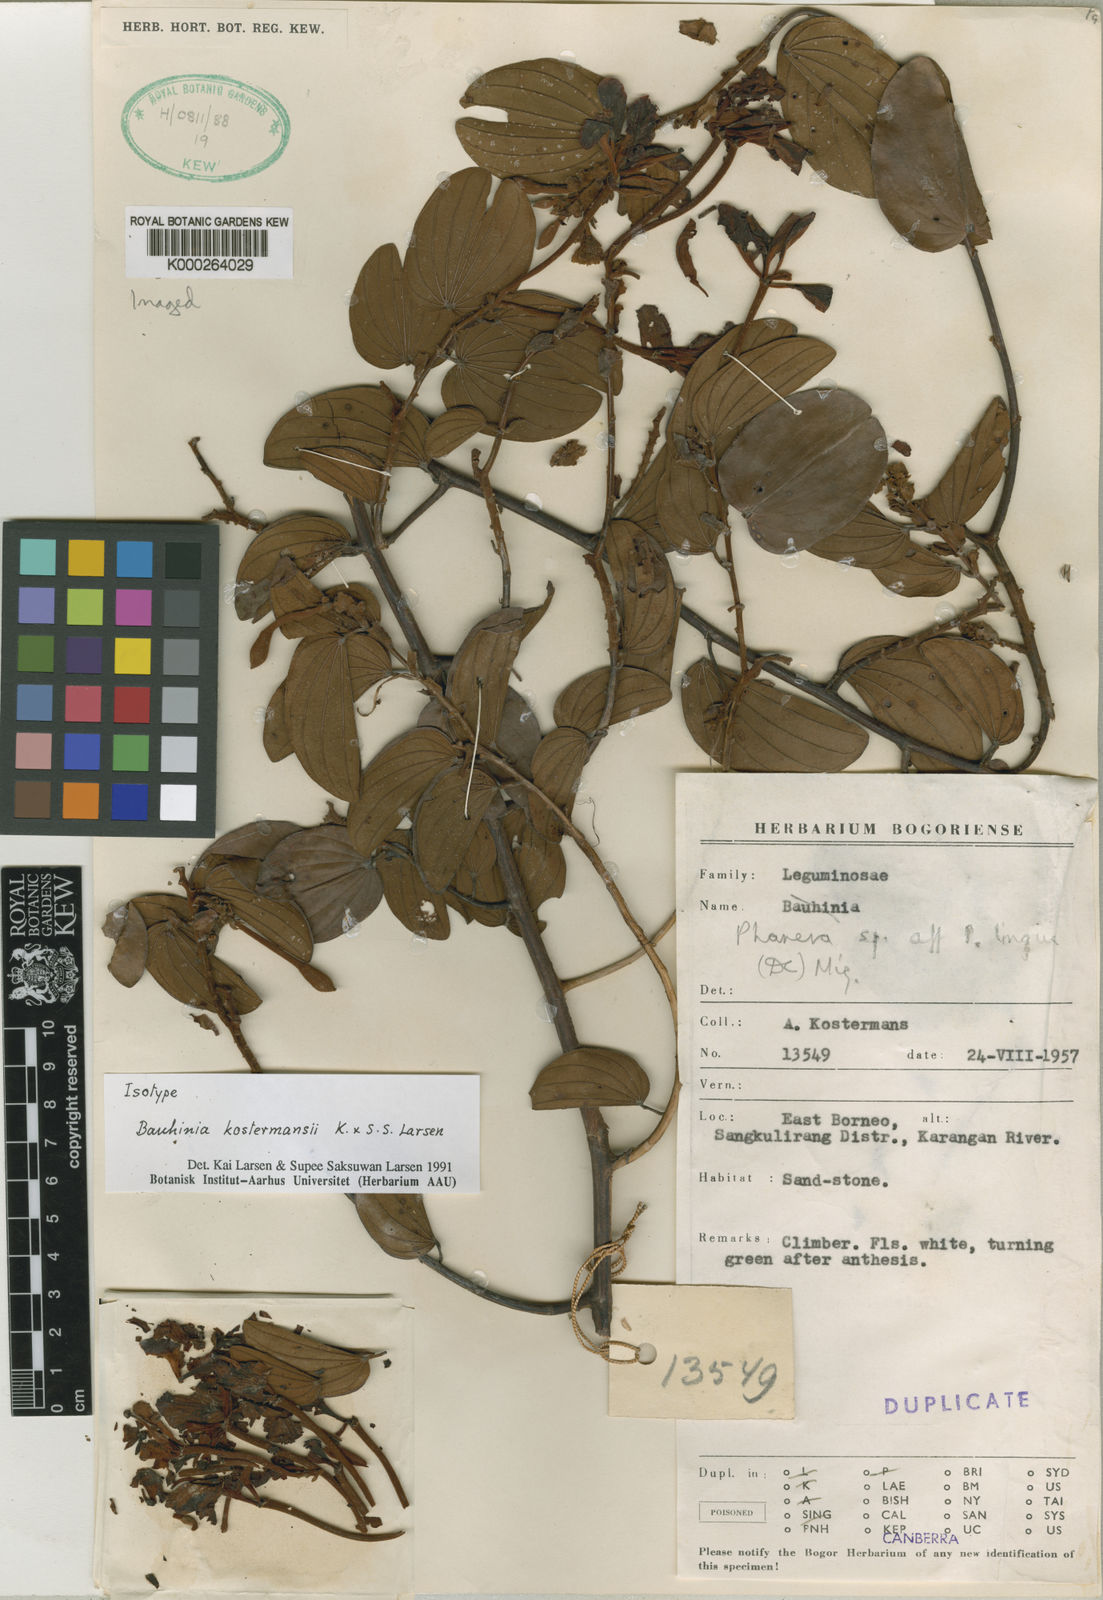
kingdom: Plantae
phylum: Tracheophyta
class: Magnoliopsida
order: Fabales
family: Fabaceae
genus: Phanera
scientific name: Phanera kostermansii
